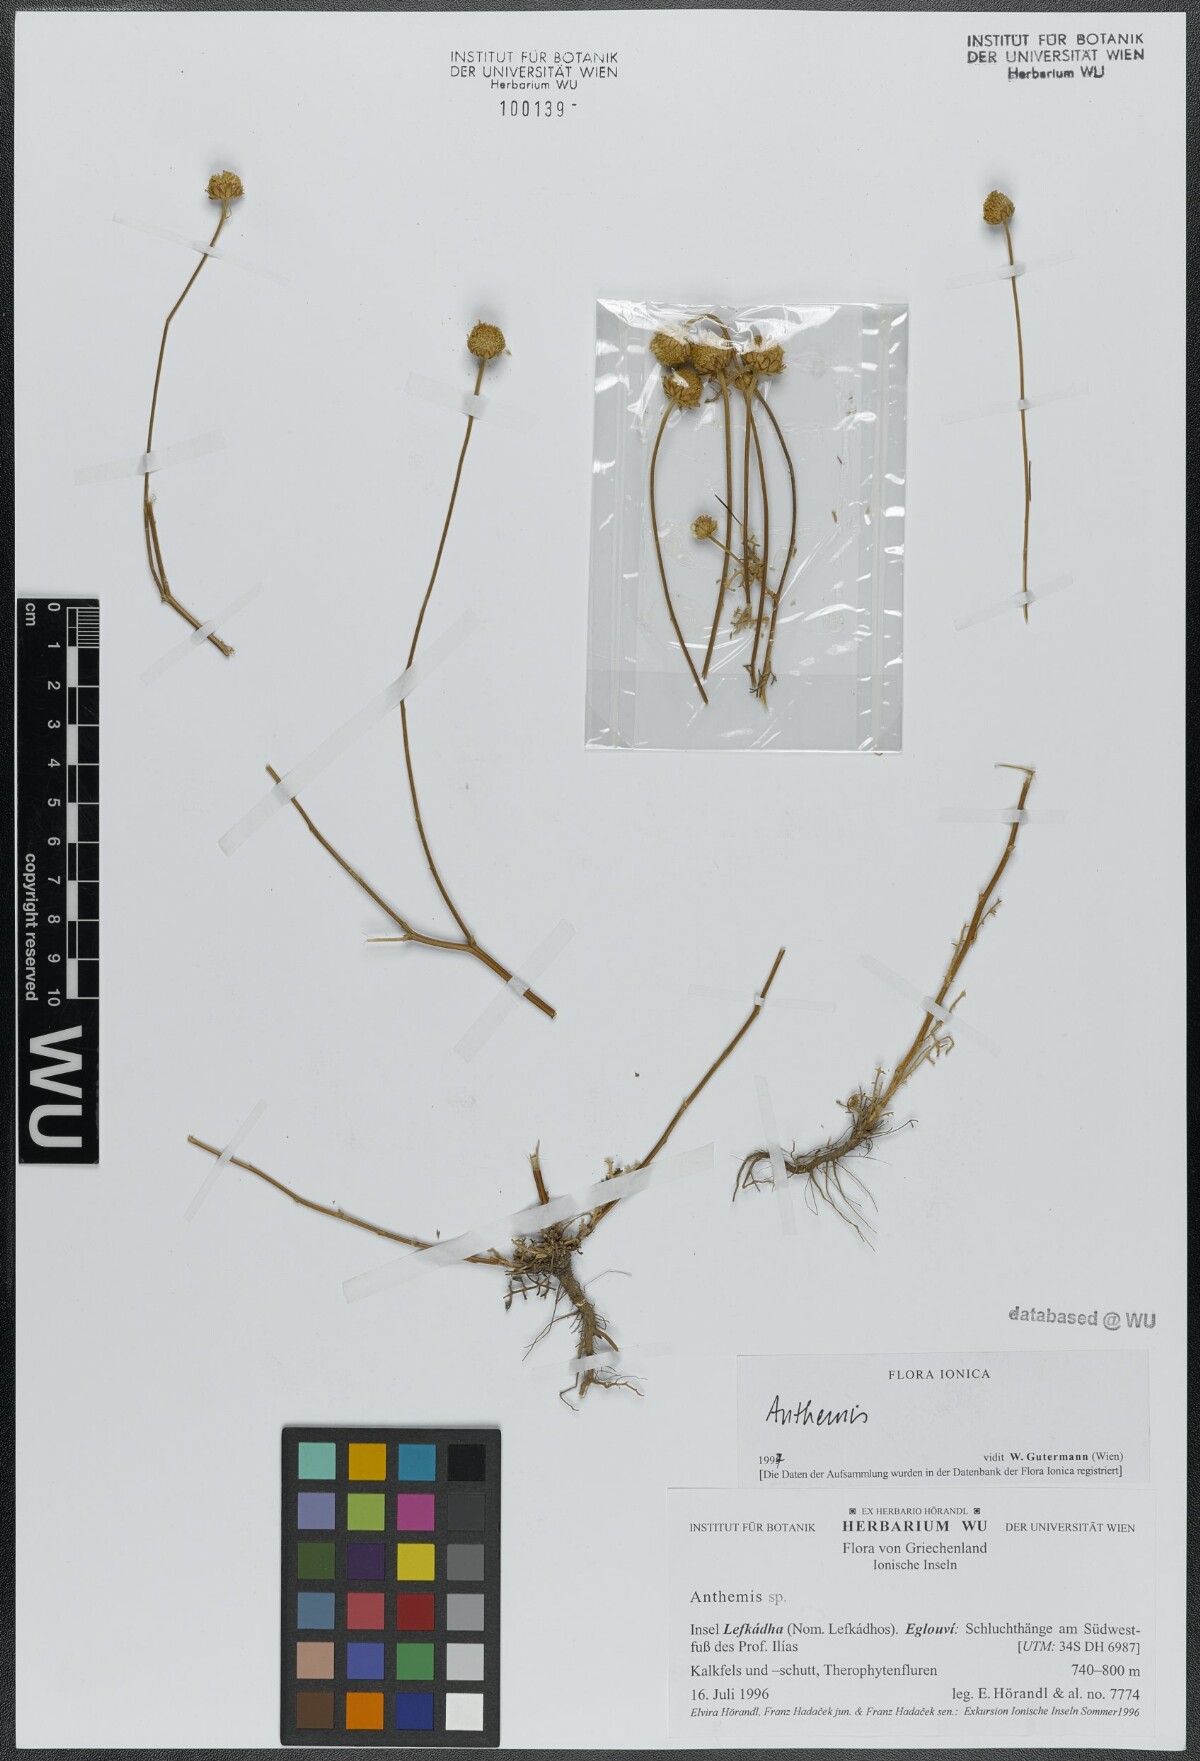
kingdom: Plantae
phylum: Tracheophyta
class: Magnoliopsida
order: Asterales
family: Asteraceae
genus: Anthemis
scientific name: Anthemis
